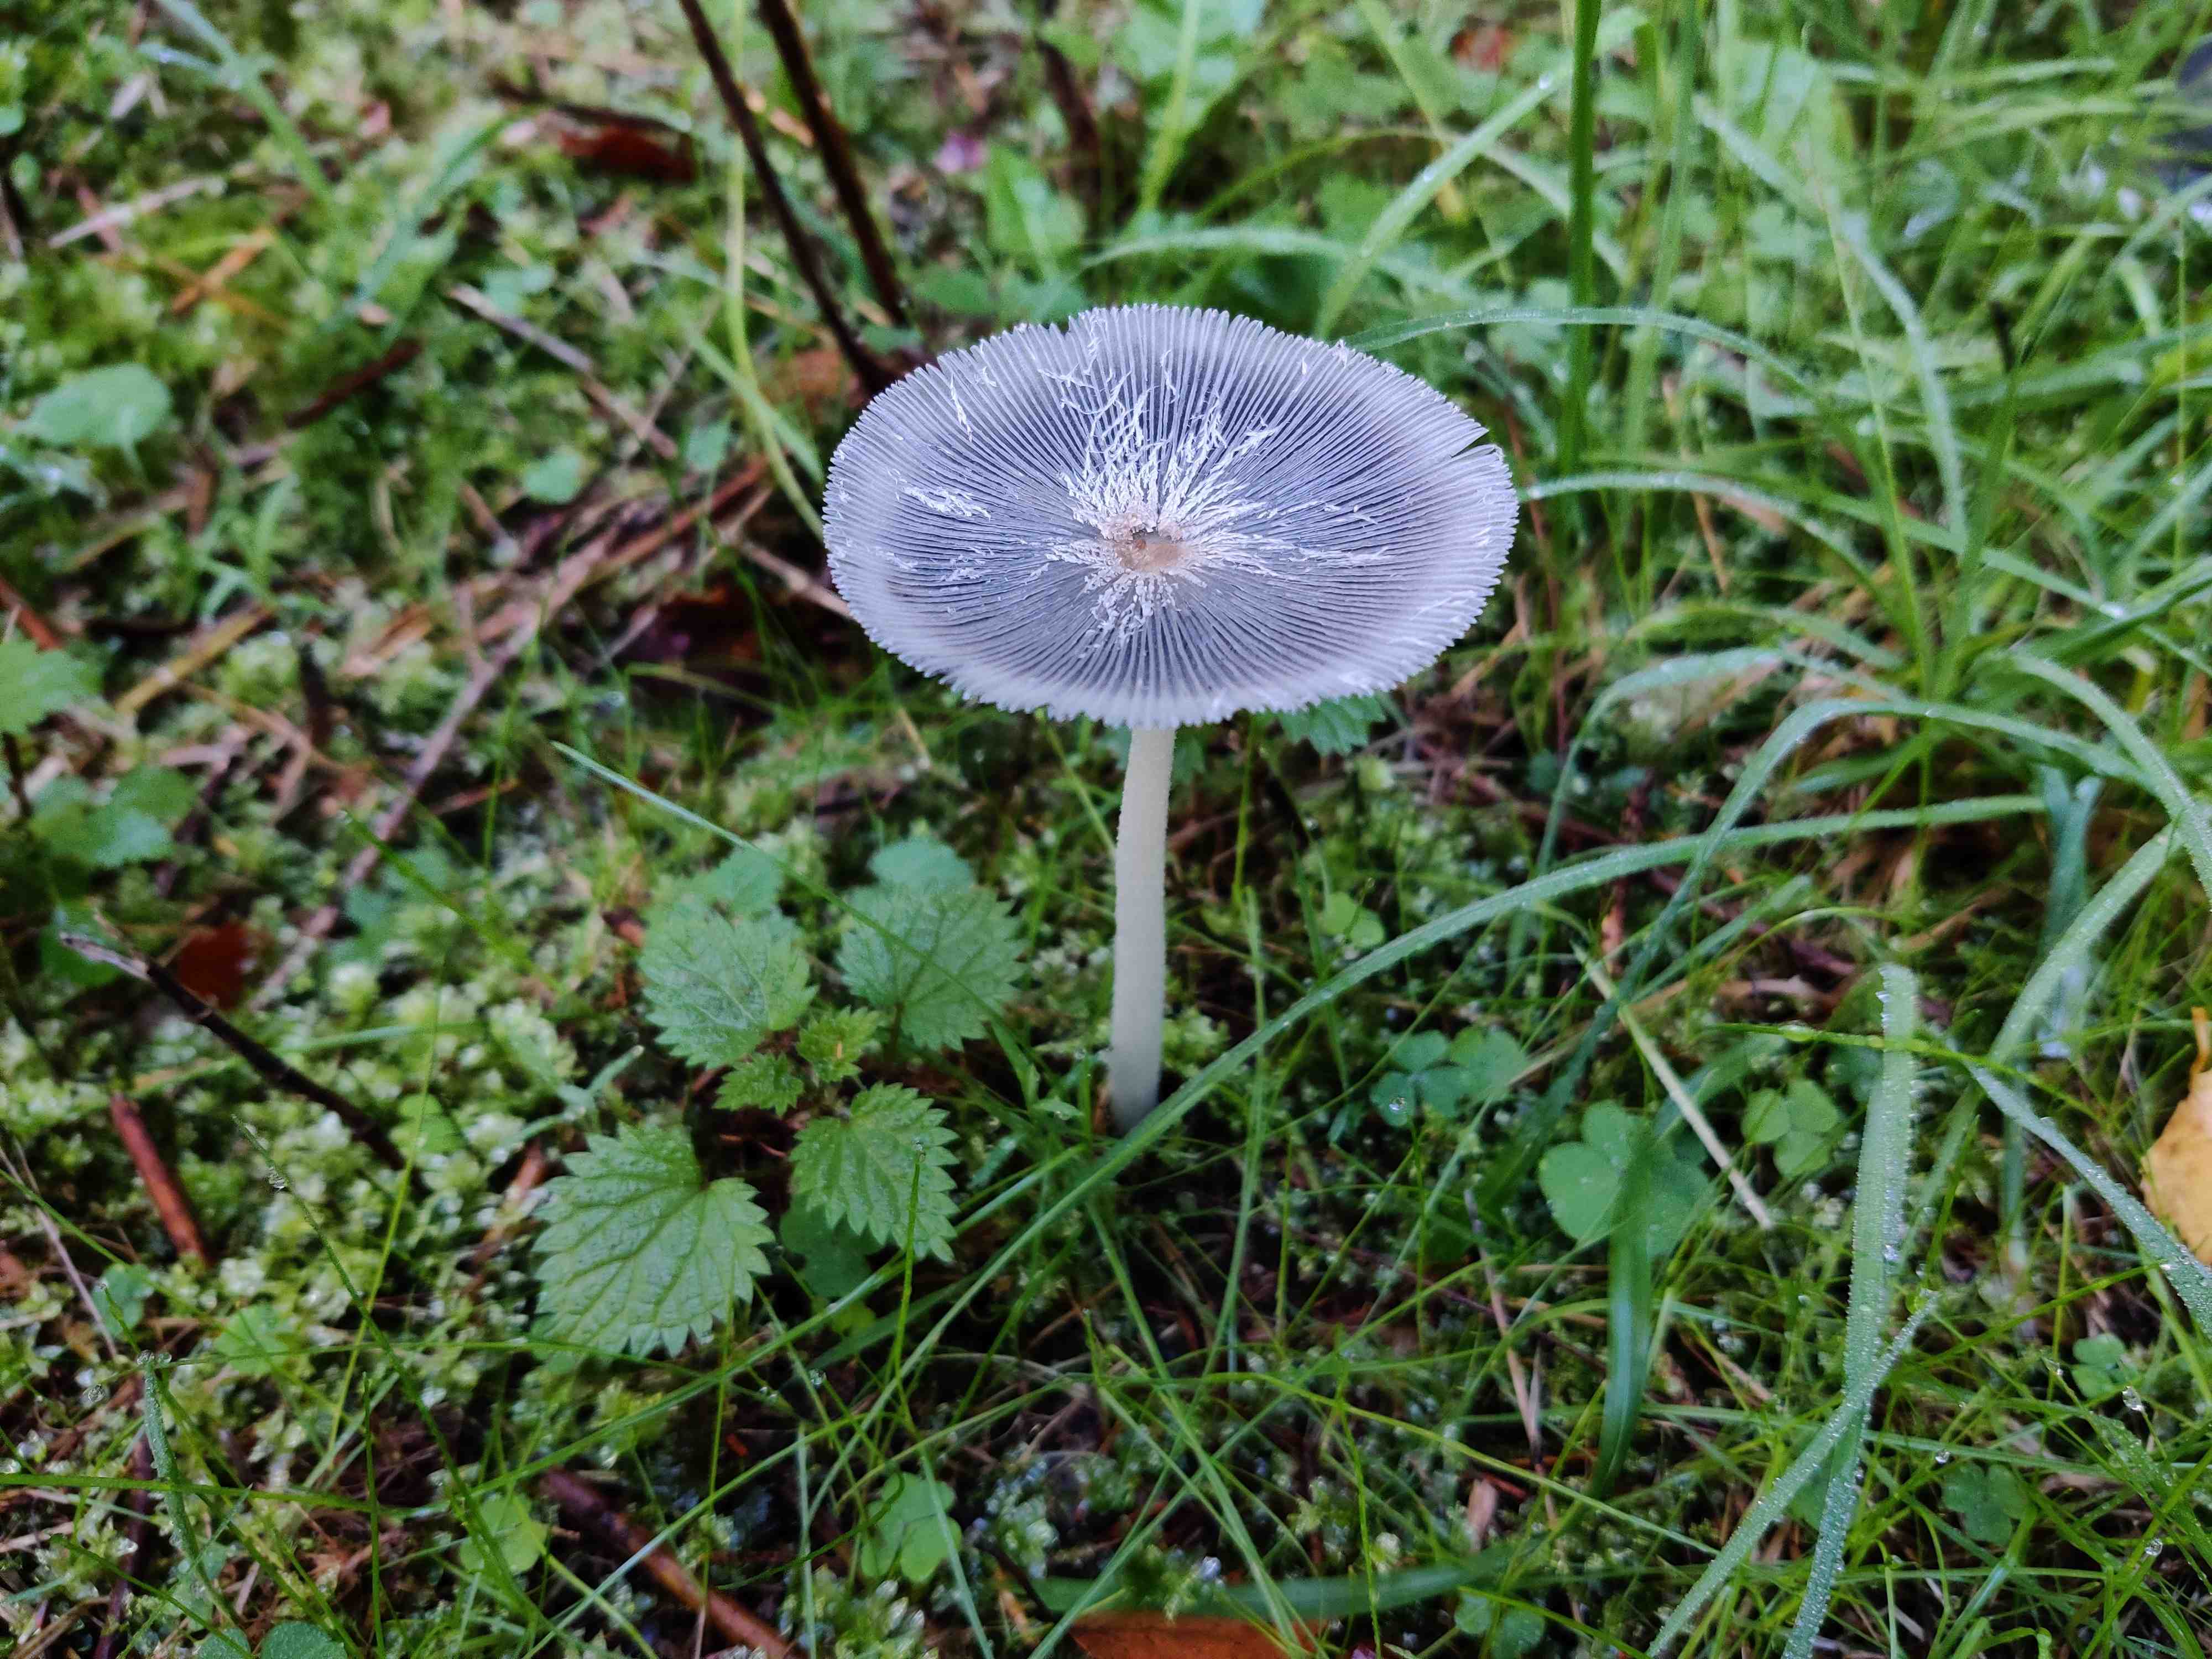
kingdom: Fungi
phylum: Basidiomycota
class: Agaricomycetes
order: Agaricales
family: Psathyrellaceae
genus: Coprinopsis
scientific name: Coprinopsis lagopus
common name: dunstokket blækhat
